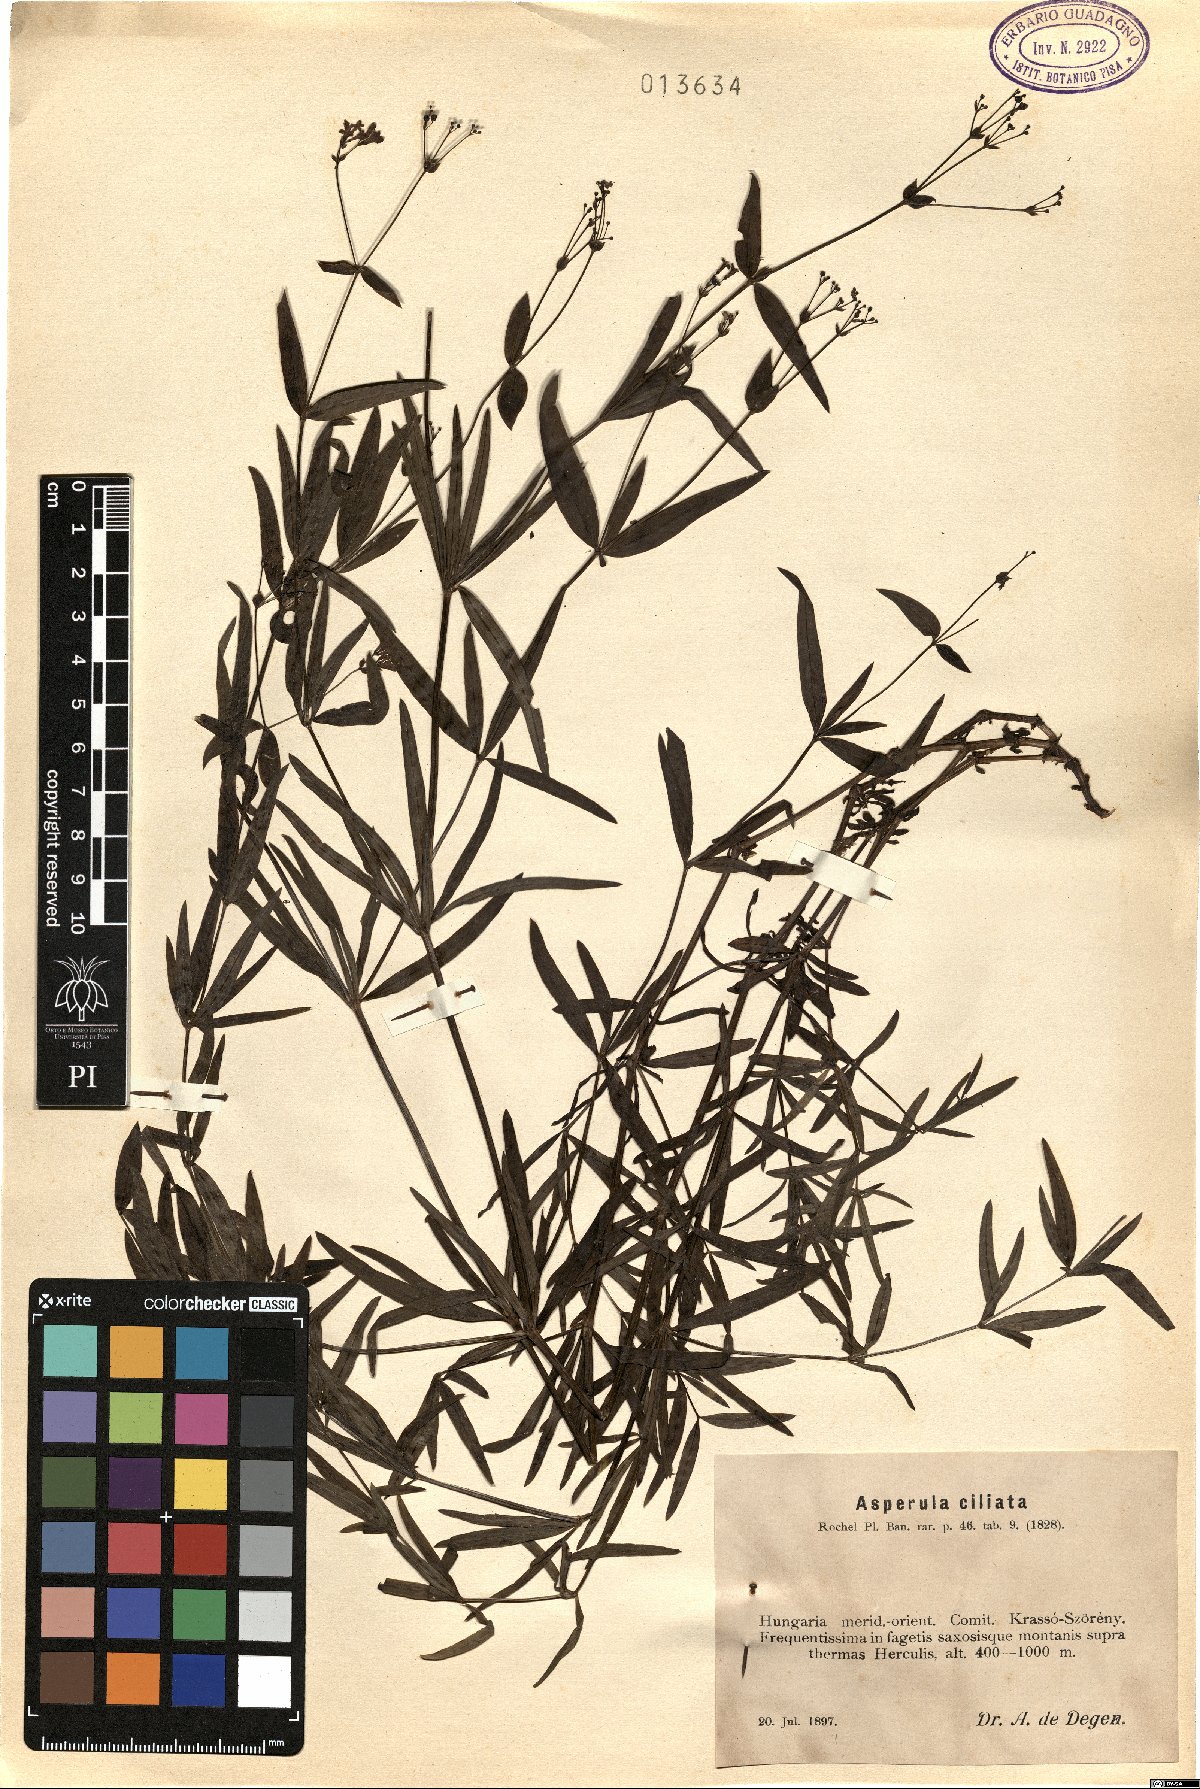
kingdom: Plantae
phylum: Tracheophyta
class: Magnoliopsida
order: Gentianales
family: Rubiaceae
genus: Asperula
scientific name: Asperula tinctoria
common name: Dyer's woodruff
